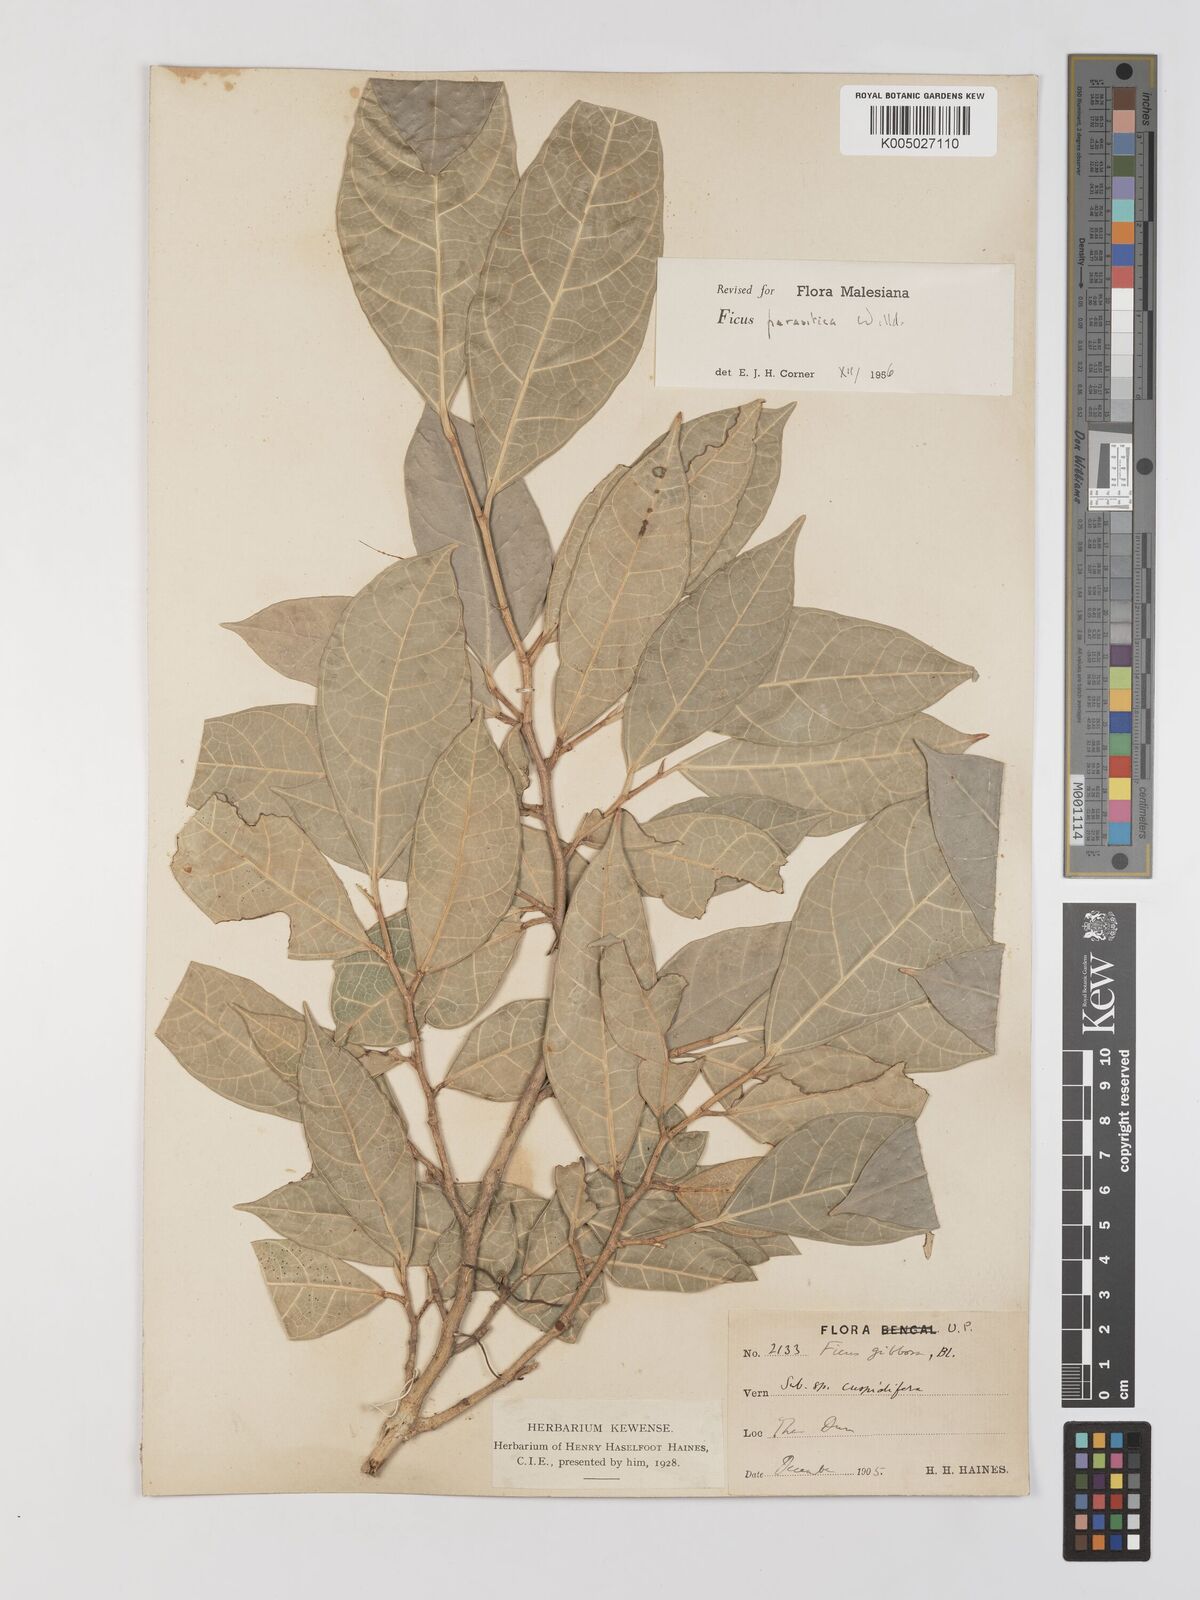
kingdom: Plantae
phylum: Tracheophyta
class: Magnoliopsida
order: Rosales
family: Moraceae
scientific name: Moraceae
